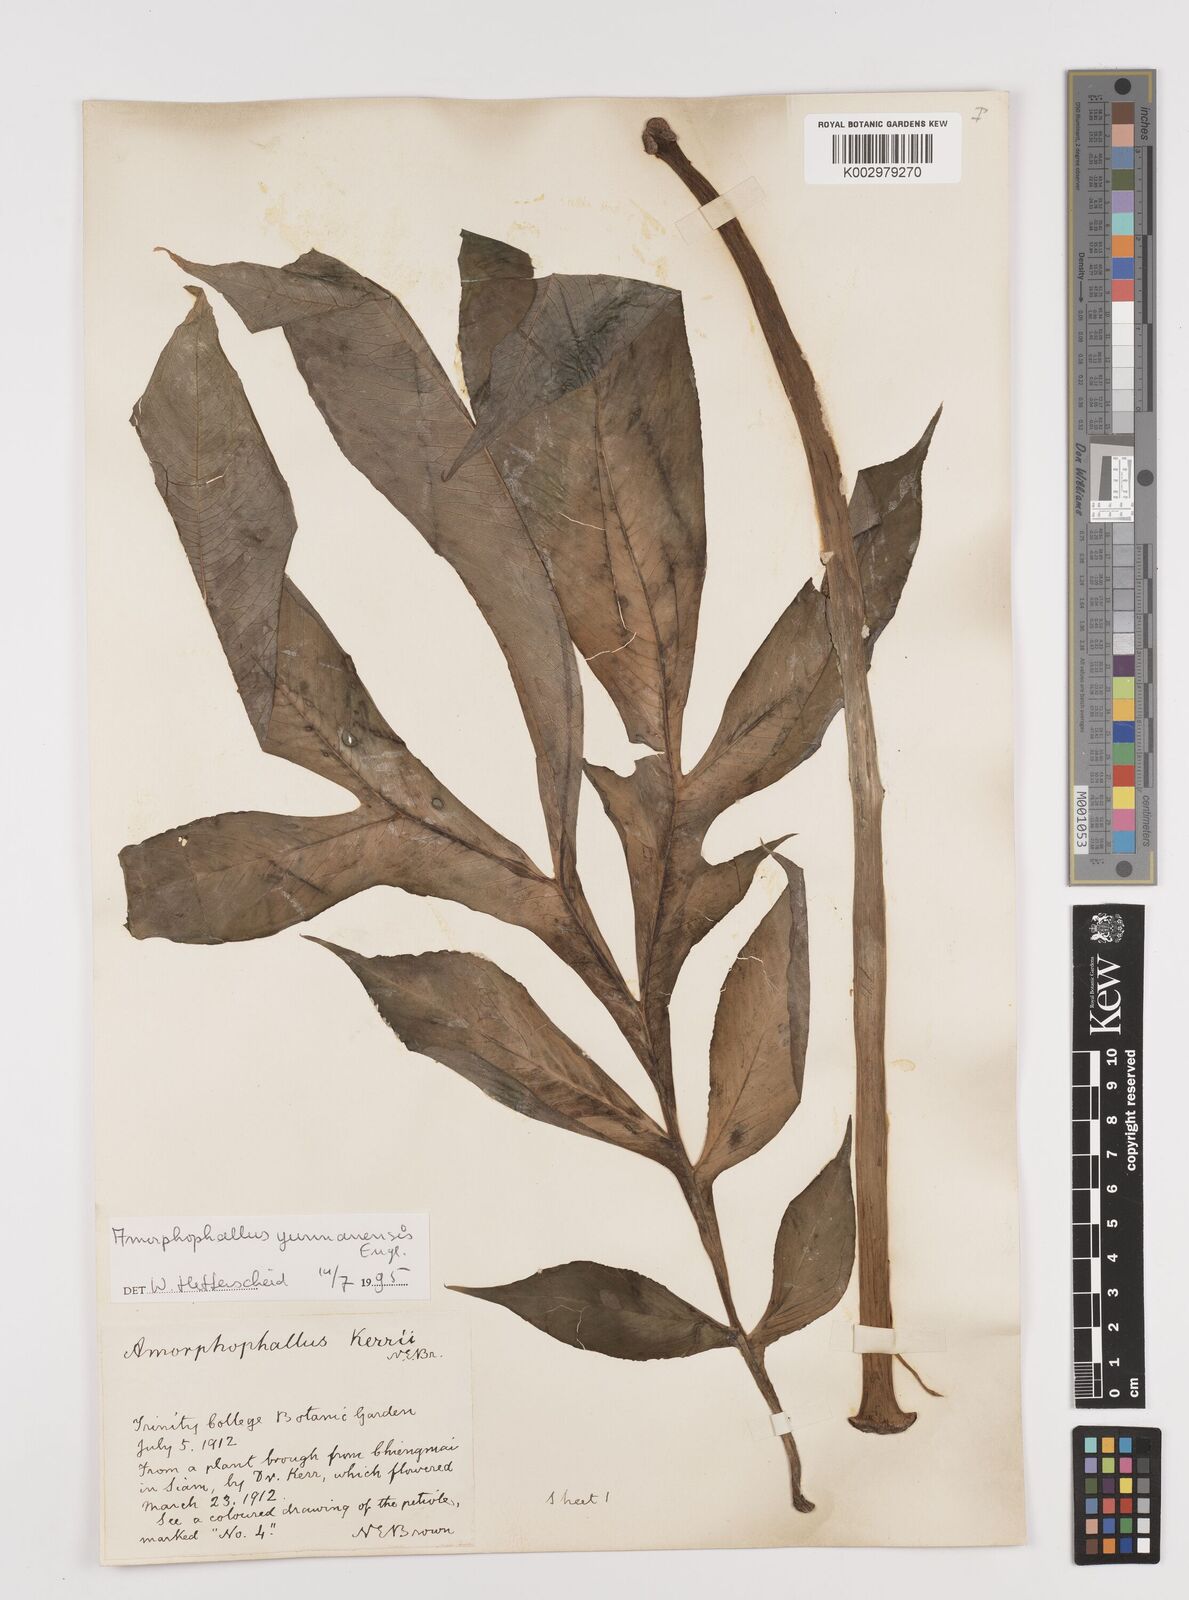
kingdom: Plantae
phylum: Tracheophyta
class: Liliopsida
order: Alismatales
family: Araceae
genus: Amorphophallus
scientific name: Amorphophallus yunnanensis
